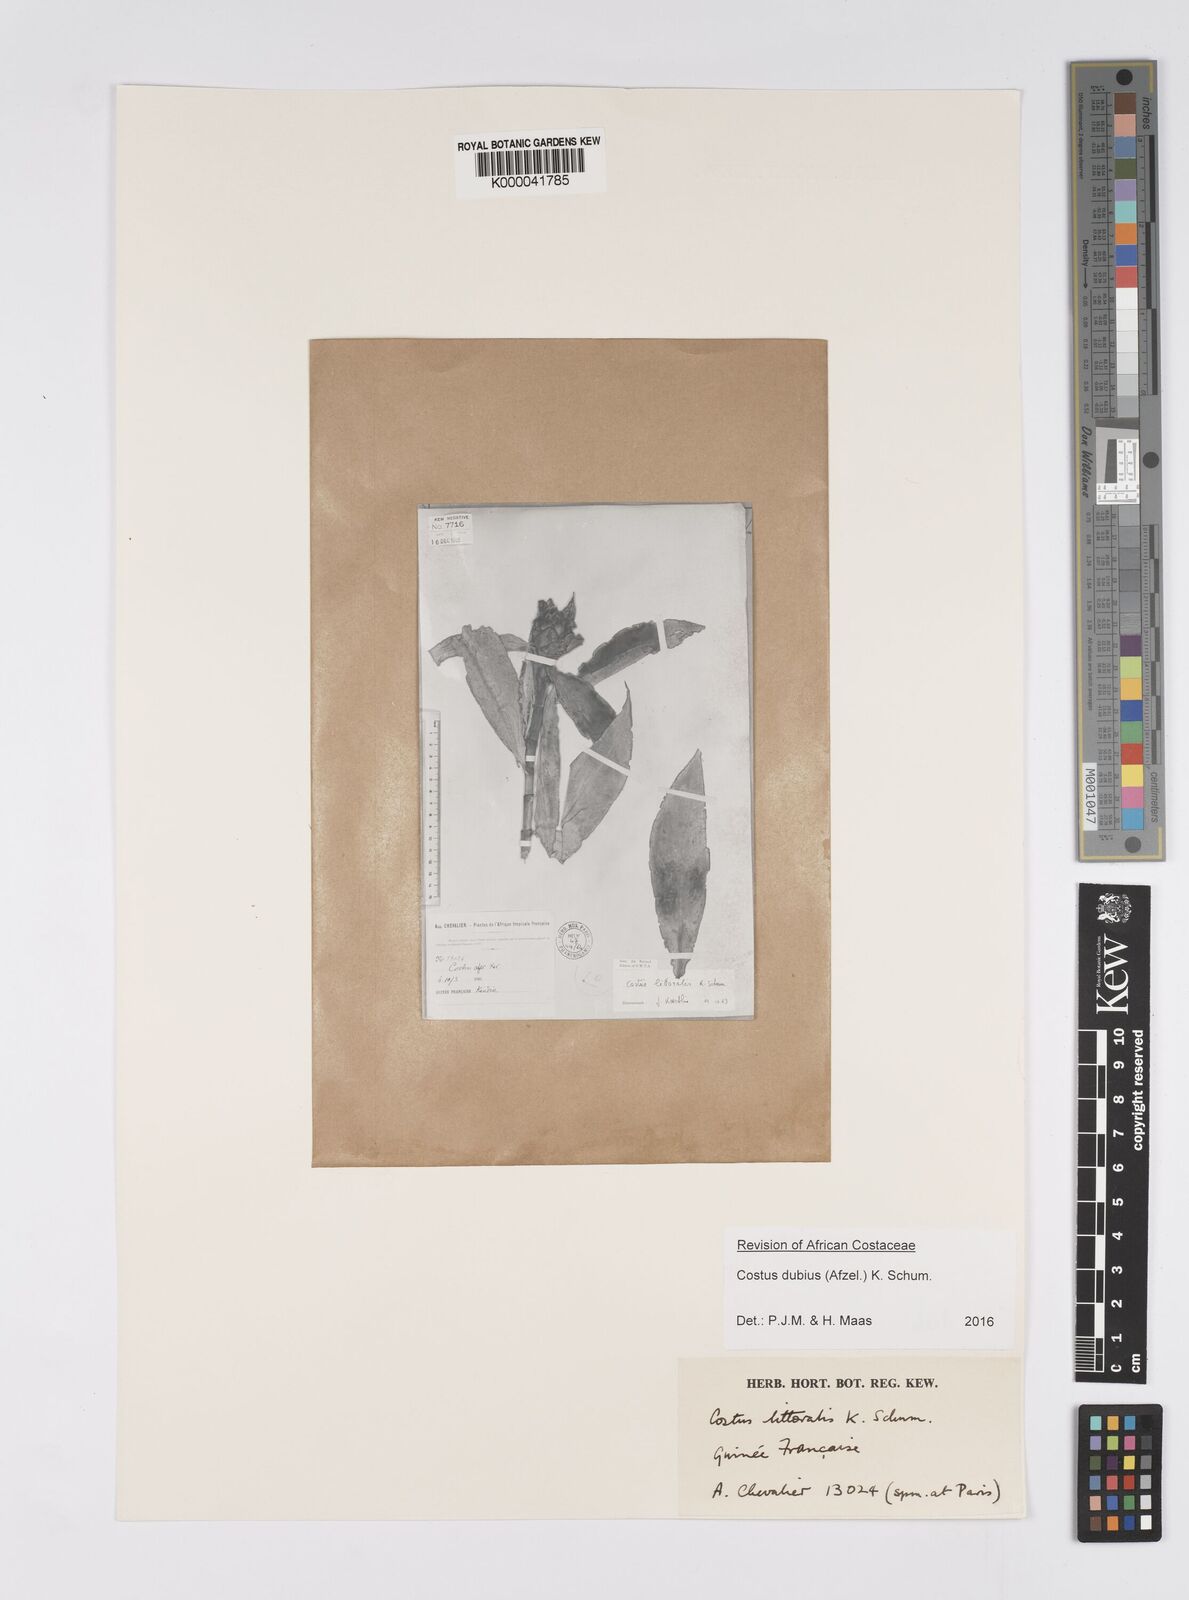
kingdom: Plantae
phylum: Tracheophyta
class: Liliopsida
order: Zingiberales
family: Costaceae
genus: Costus
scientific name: Costus dubius
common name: Costus
